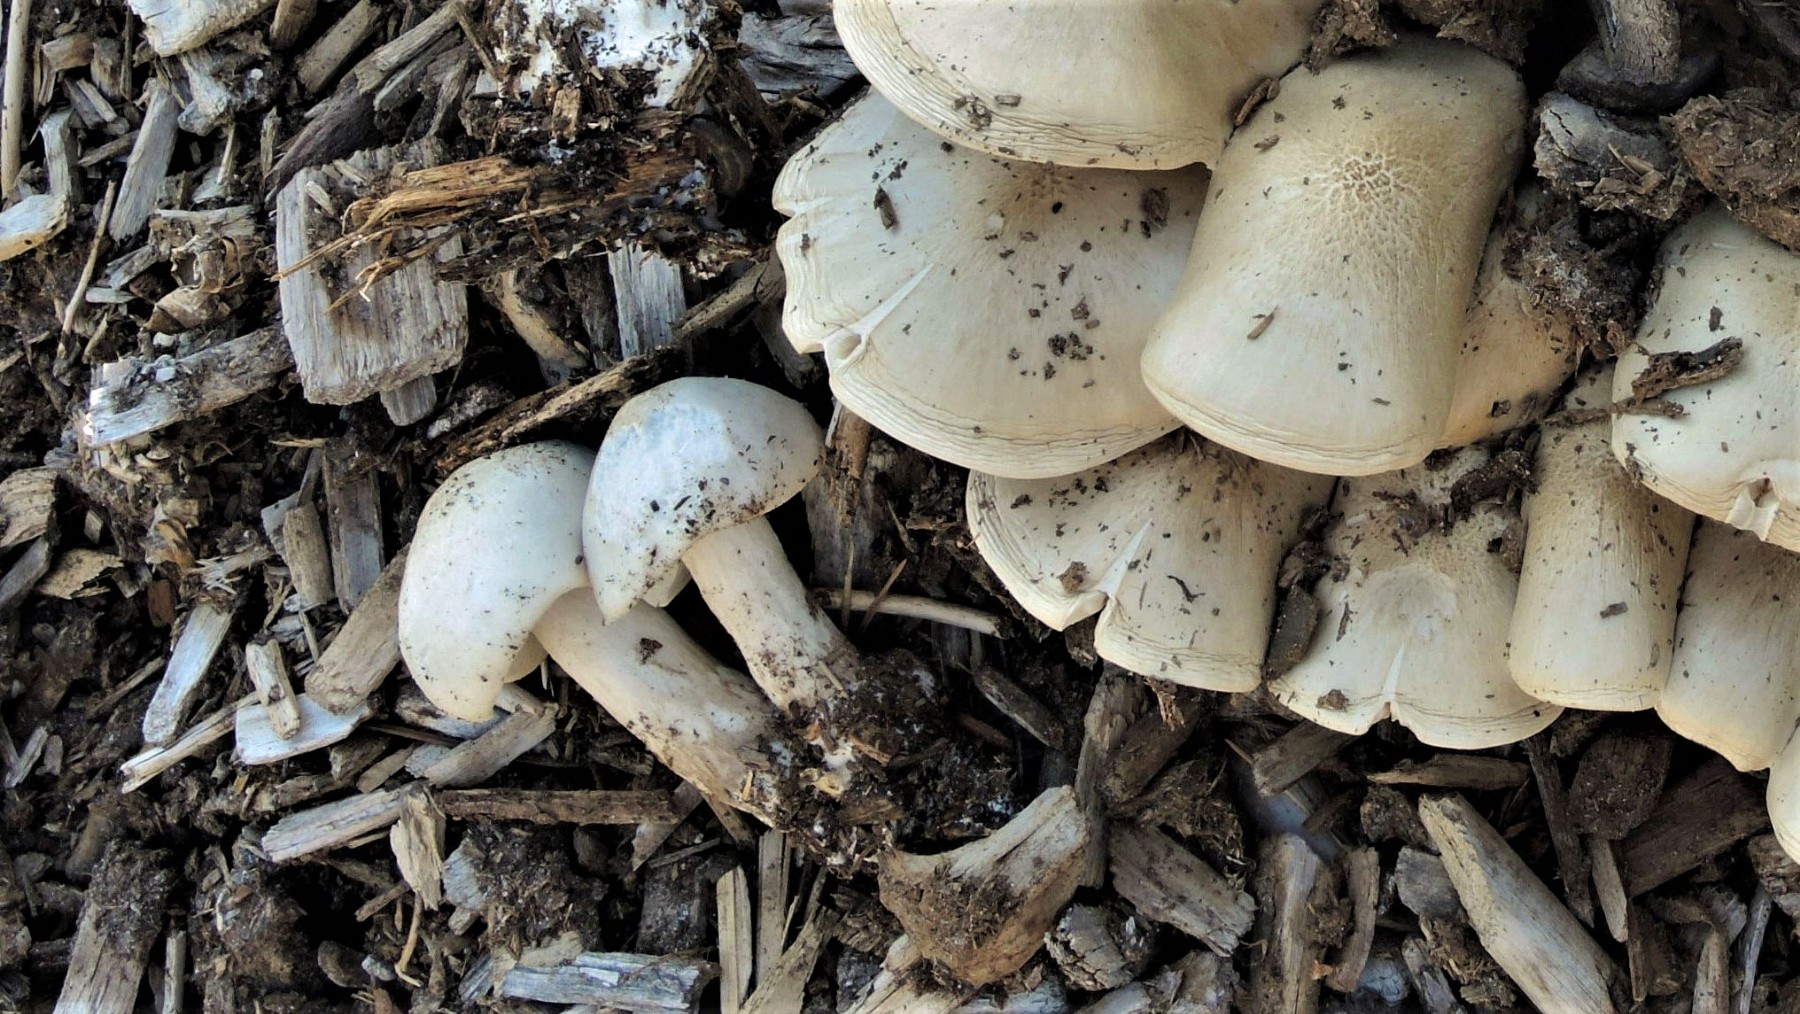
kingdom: Fungi
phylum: Basidiomycota
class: Agaricomycetes
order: Agaricales
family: Pluteaceae
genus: Pluteus
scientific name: Pluteus petasatus
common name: savsmulds-skærmhat
